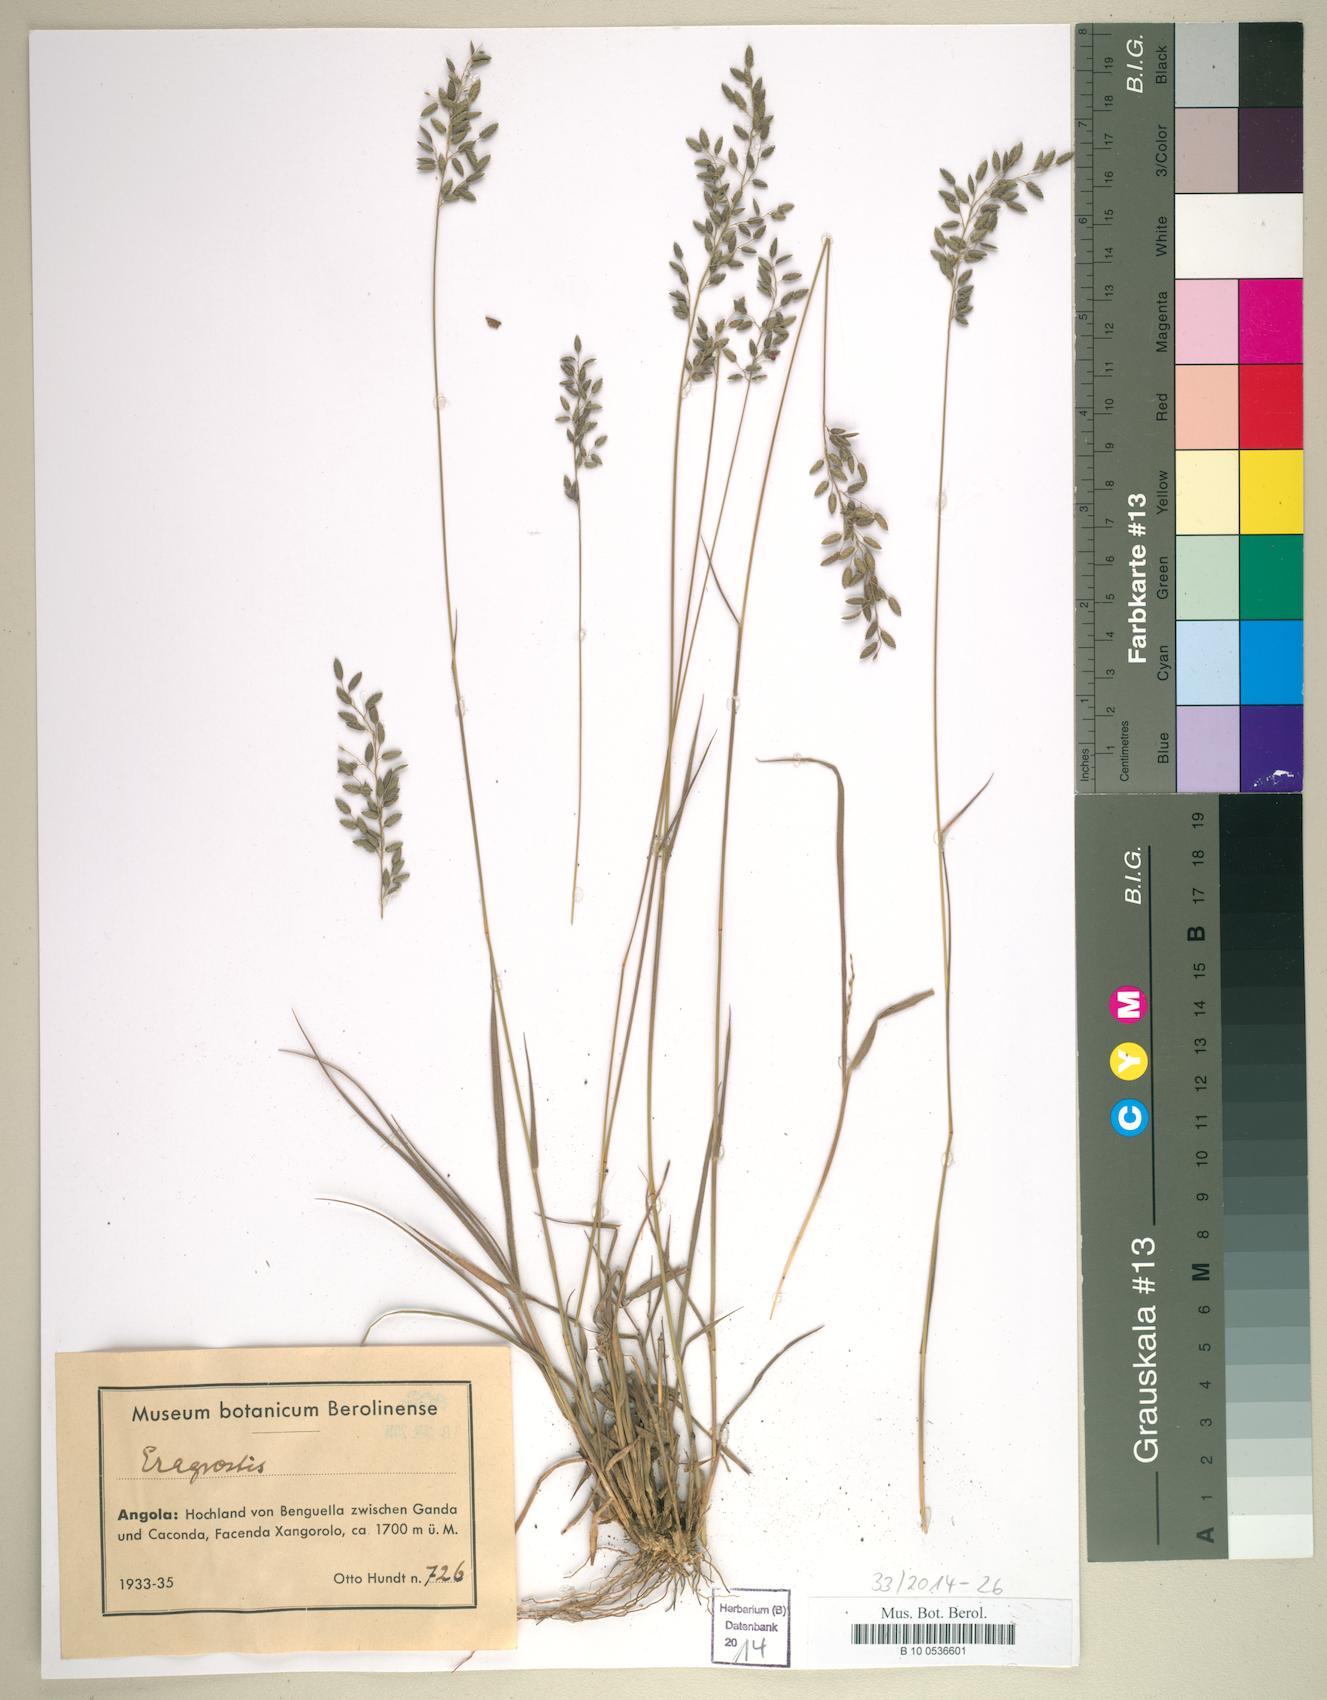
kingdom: Plantae
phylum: Tracheophyta
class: Liliopsida
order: Poales
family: Poaceae
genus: Eragrostis
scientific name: Eragrostis
